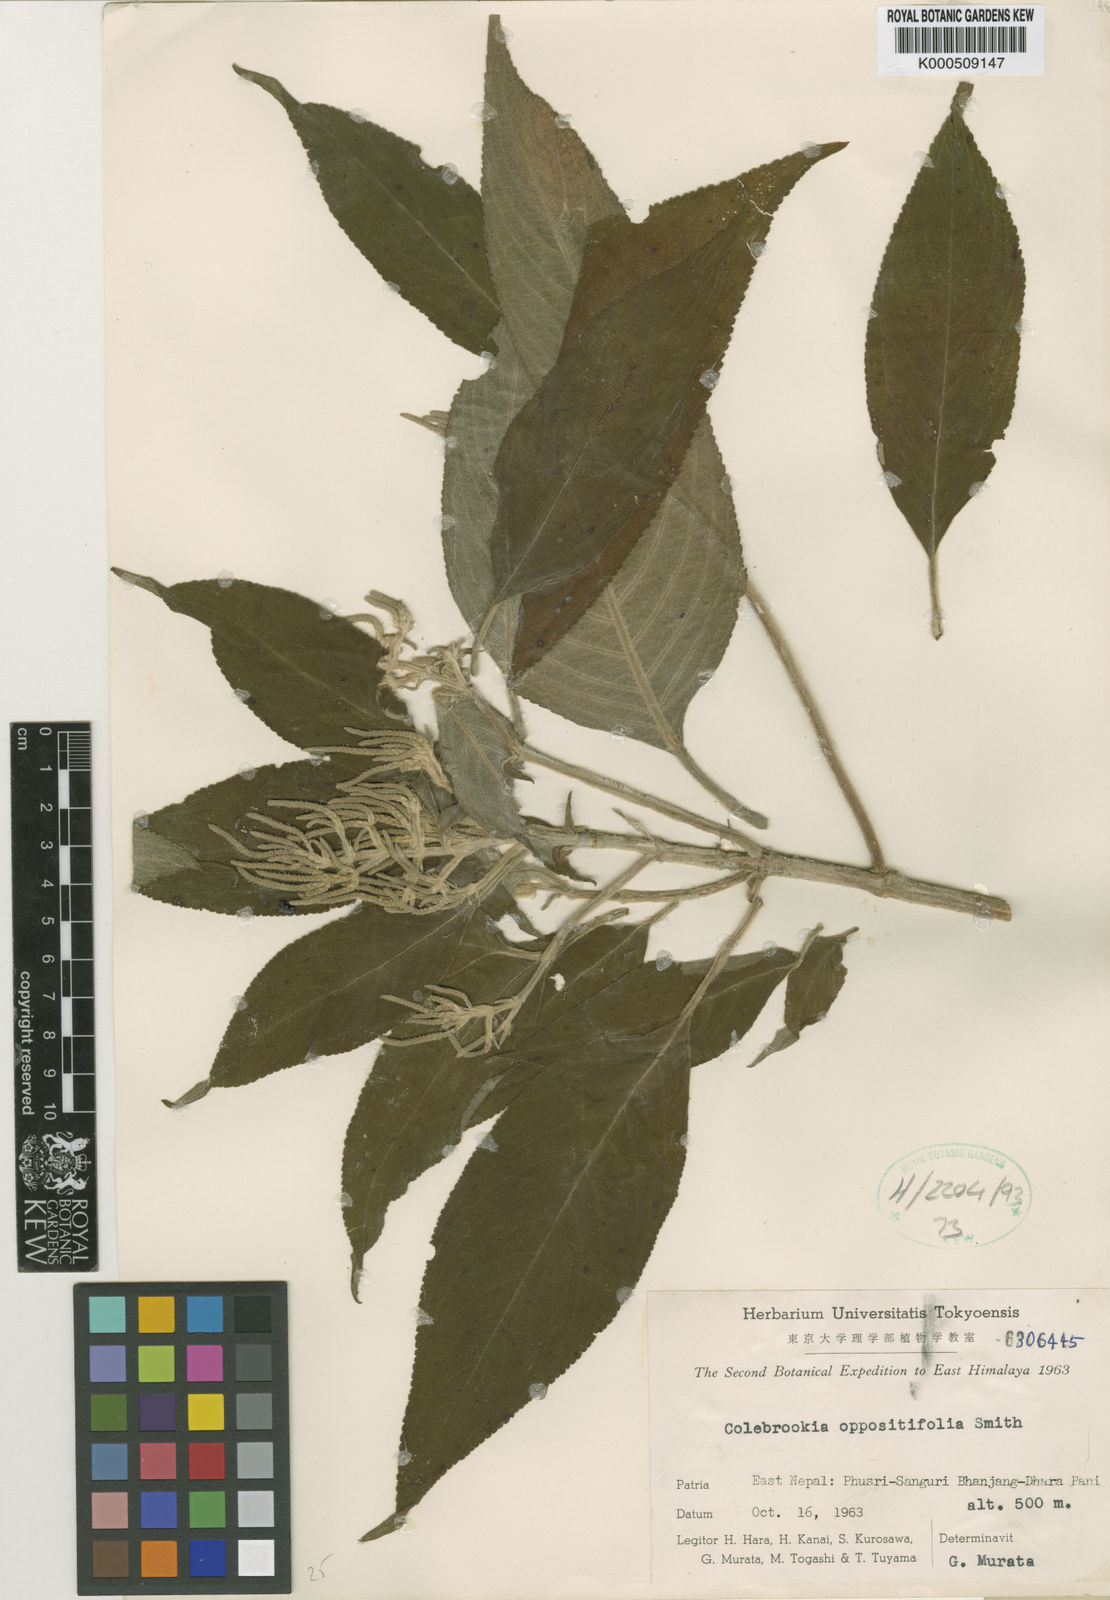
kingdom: Plantae
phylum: Tracheophyta
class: Magnoliopsida
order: Lamiales
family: Lamiaceae
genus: Colebrookea
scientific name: Colebrookea oppositifolia
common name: Indian squirrel tail
